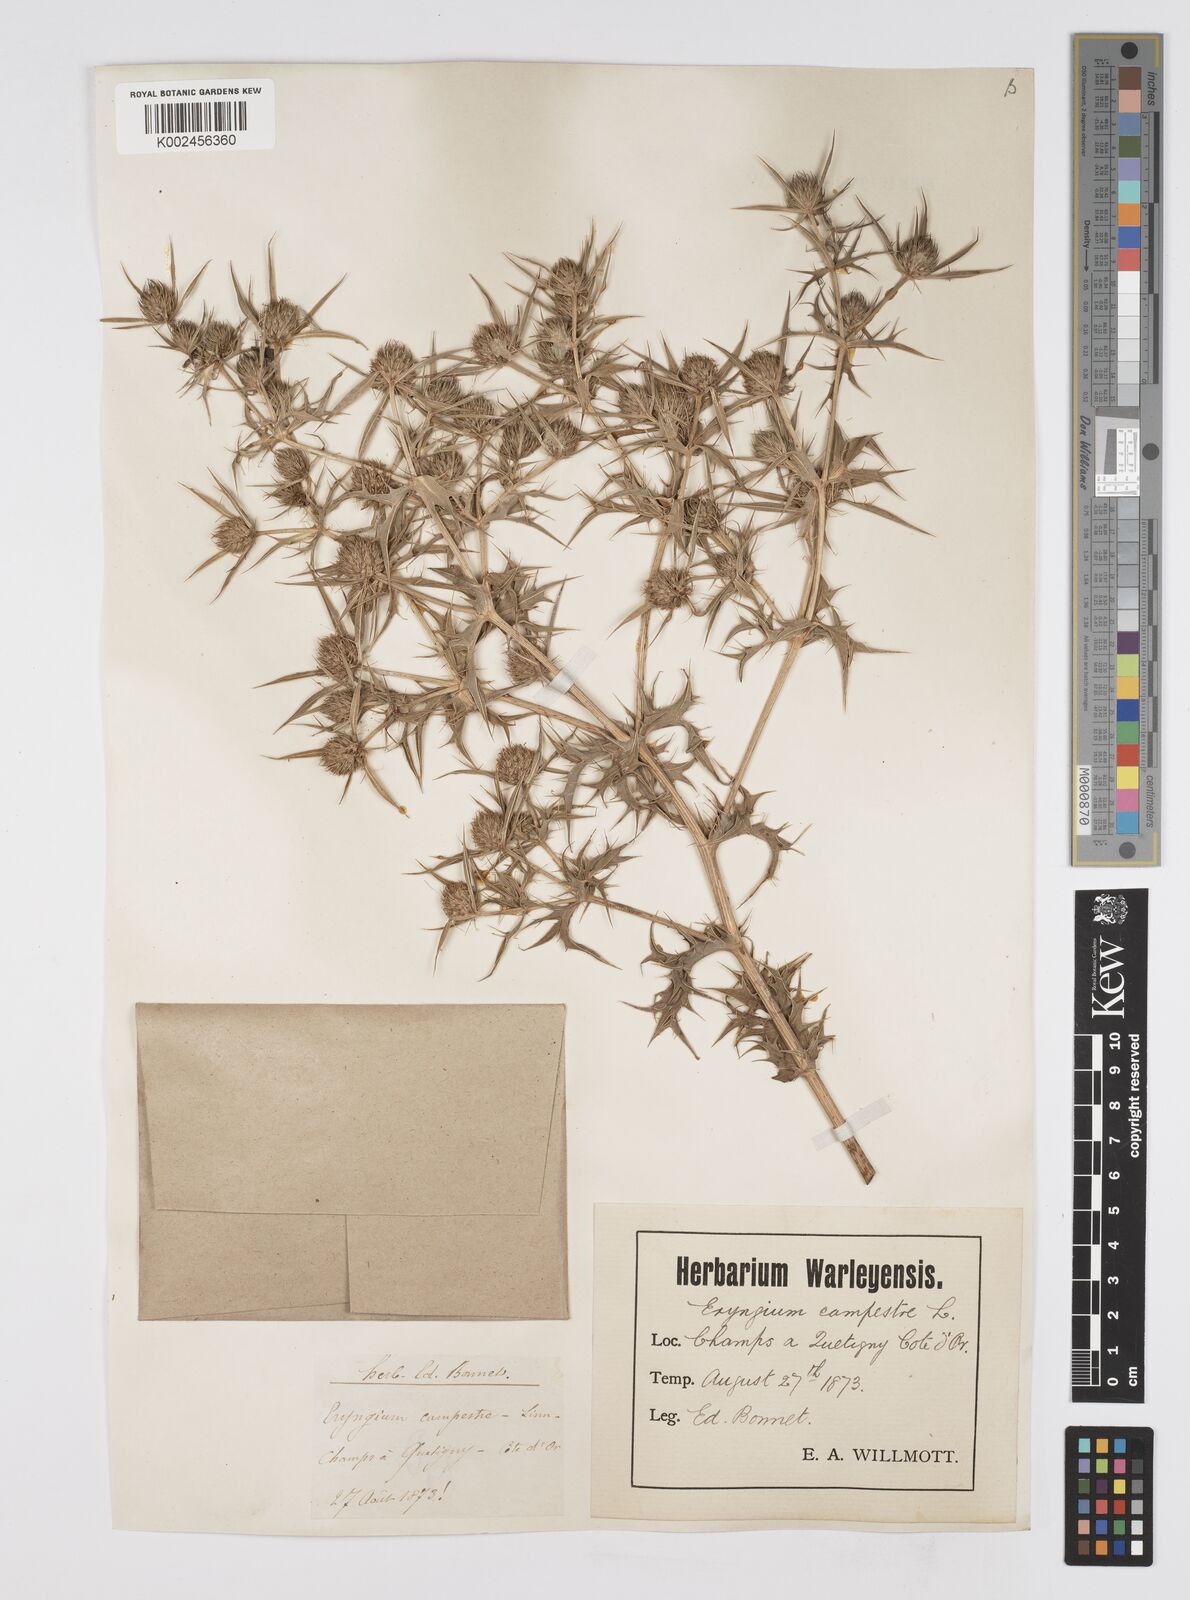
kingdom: Plantae
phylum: Tracheophyta
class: Magnoliopsida
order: Apiales
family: Apiaceae
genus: Eryngium
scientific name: Eryngium campestre
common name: Field eryngo
